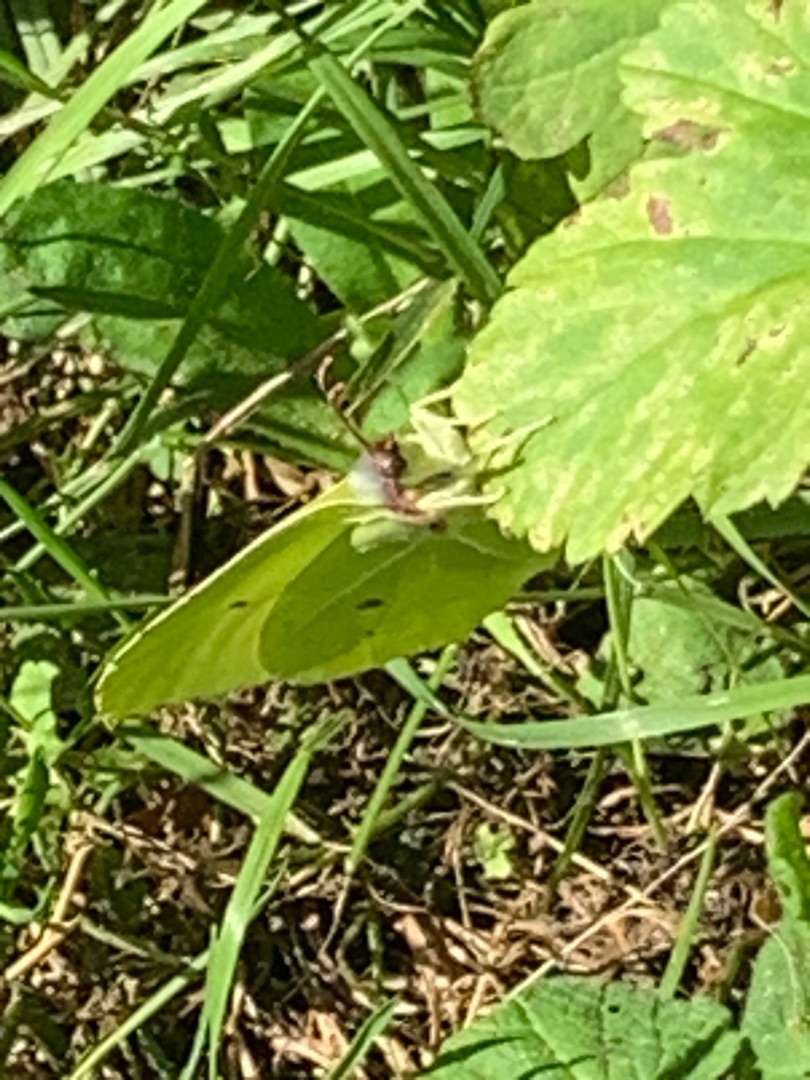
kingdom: Animalia
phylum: Arthropoda
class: Insecta
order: Lepidoptera
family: Pieridae
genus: Gonepteryx
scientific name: Gonepteryx rhamni
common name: Citronsommerfugl
